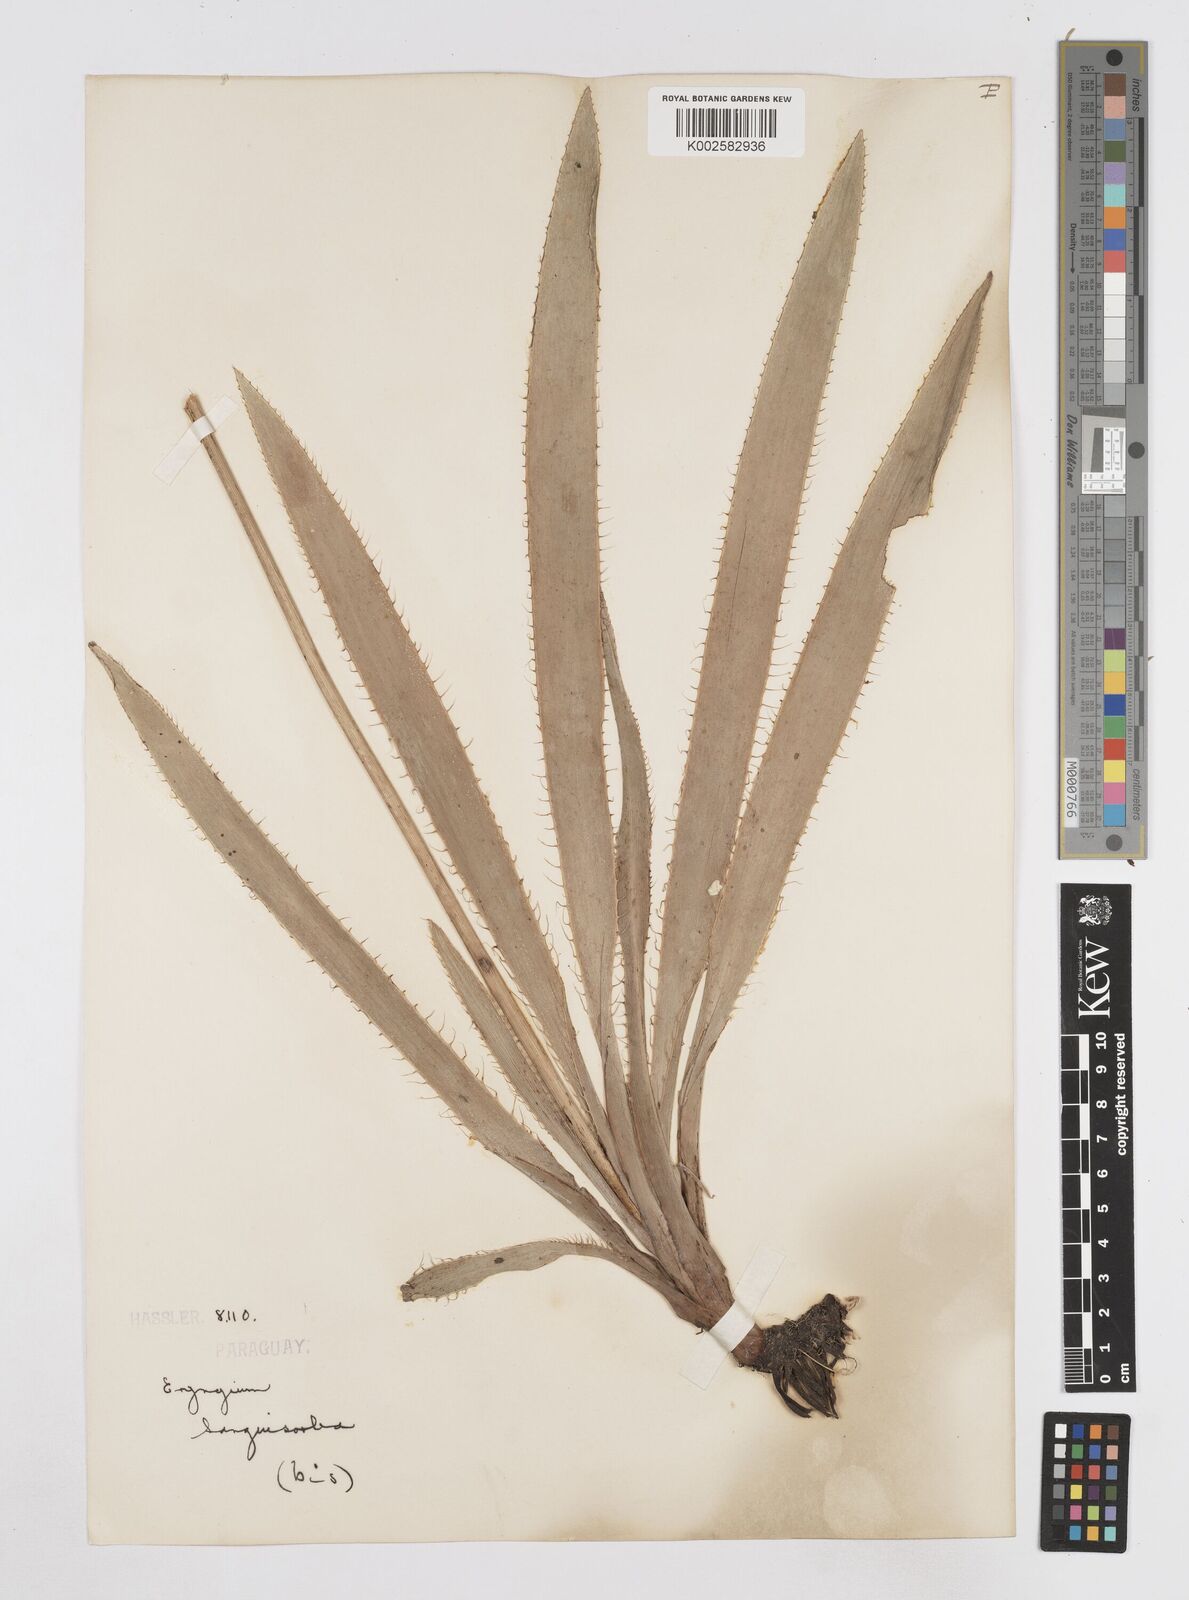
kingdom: Plantae
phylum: Tracheophyta
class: Magnoliopsida
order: Apiales
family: Apiaceae
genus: Eryngium
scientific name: Eryngium sanguisorba
